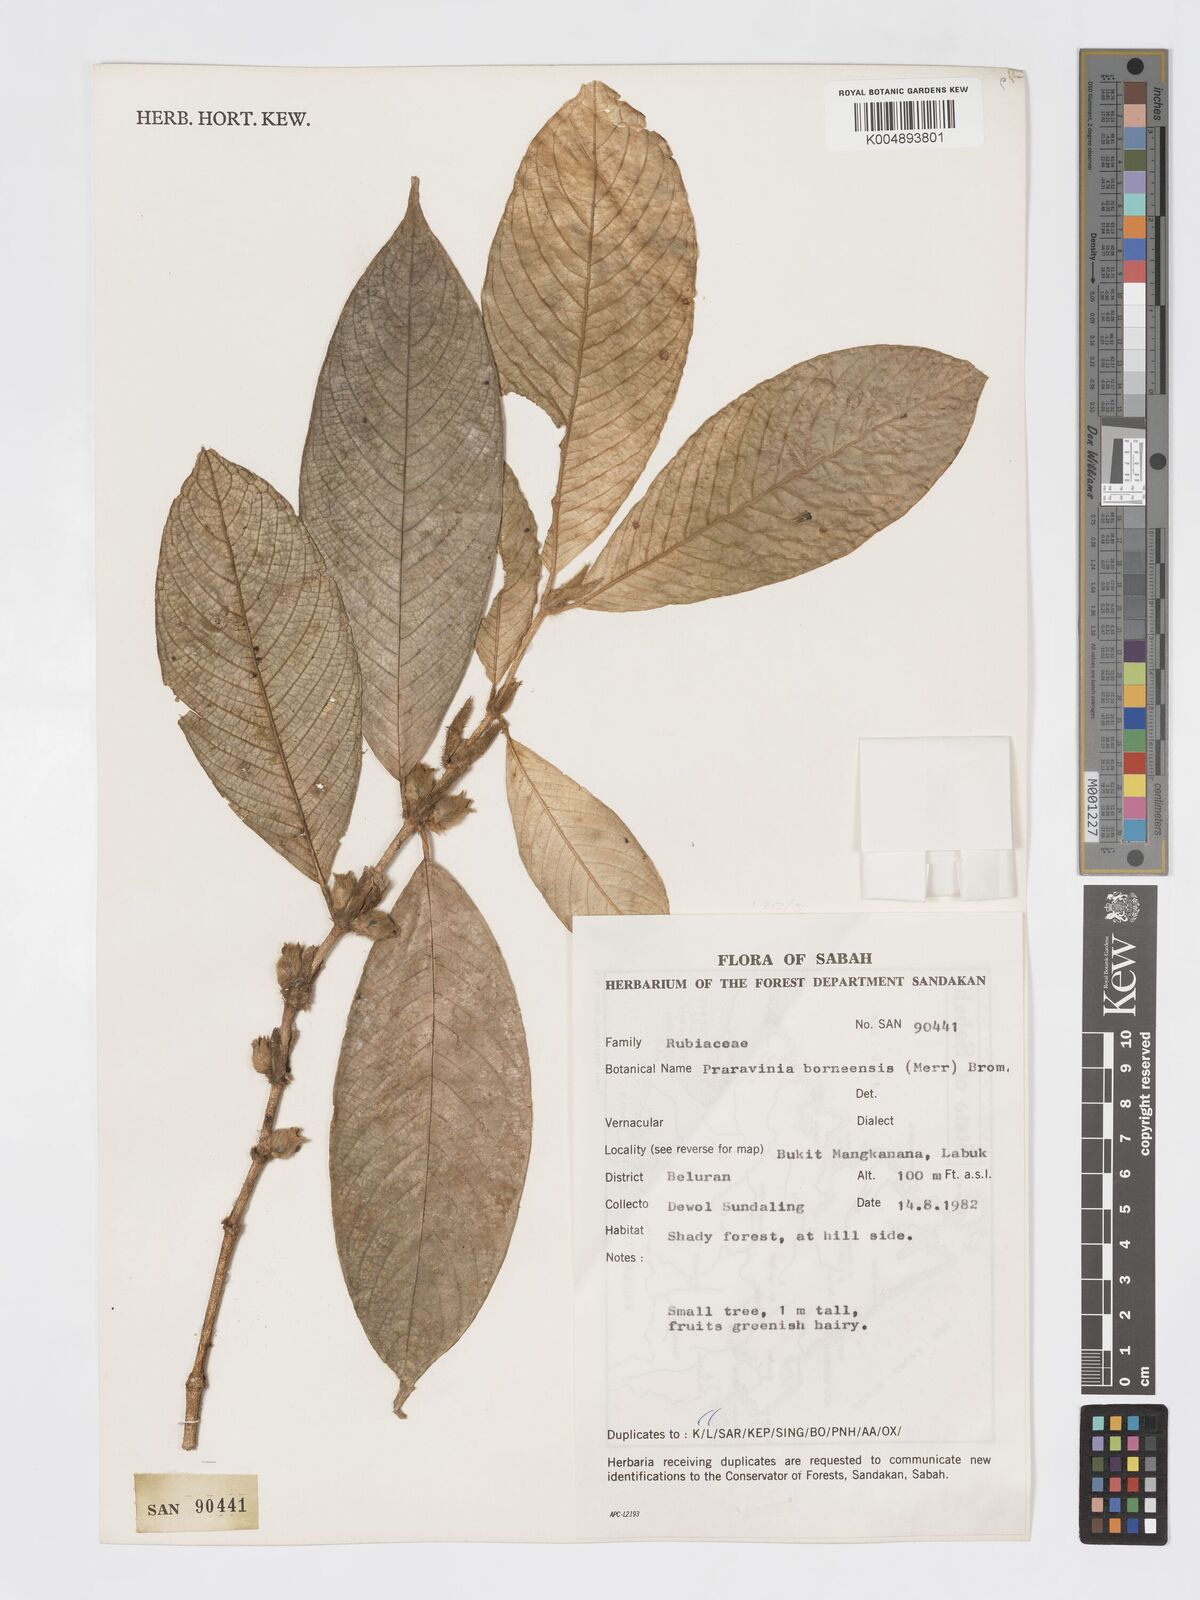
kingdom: Plantae
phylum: Tracheophyta
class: Magnoliopsida
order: Gentianales
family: Rubiaceae
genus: Praravinia
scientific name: Praravinia borneensis
